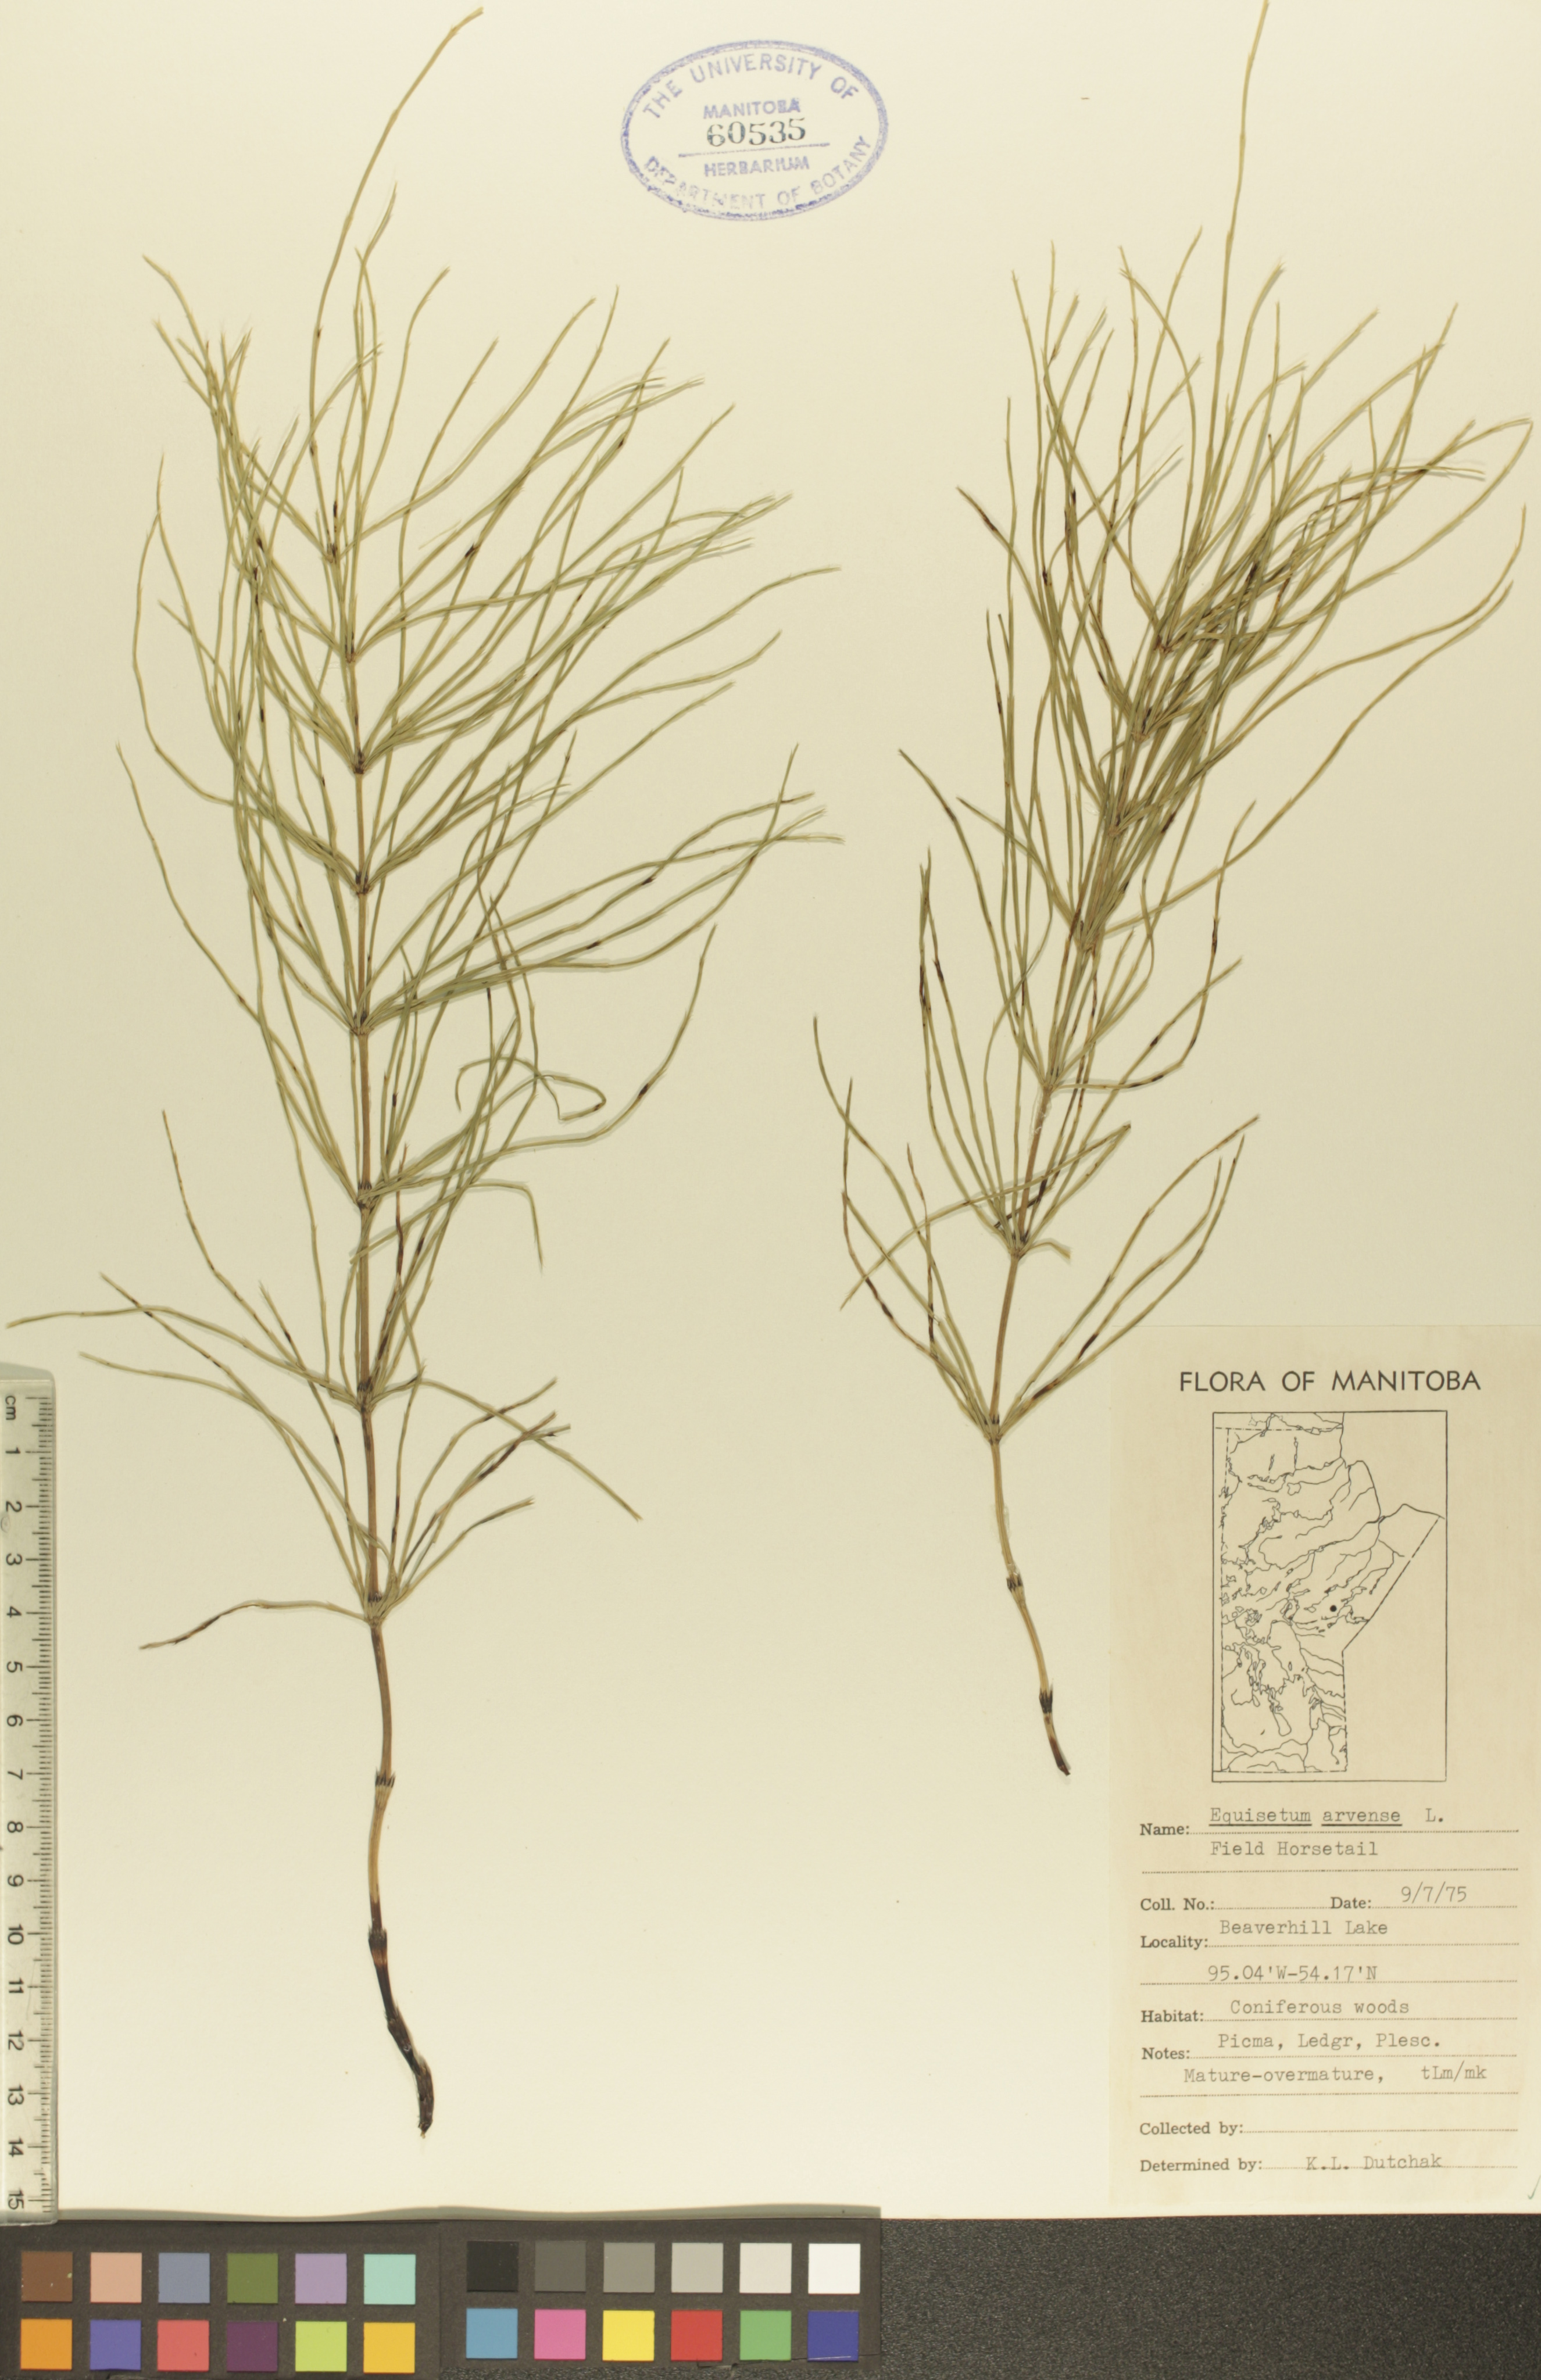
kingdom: Plantae
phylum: Tracheophyta
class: Polypodiopsida
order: Equisetales
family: Equisetaceae
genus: Equisetum
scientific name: Equisetum arvense
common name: Field horsetail
